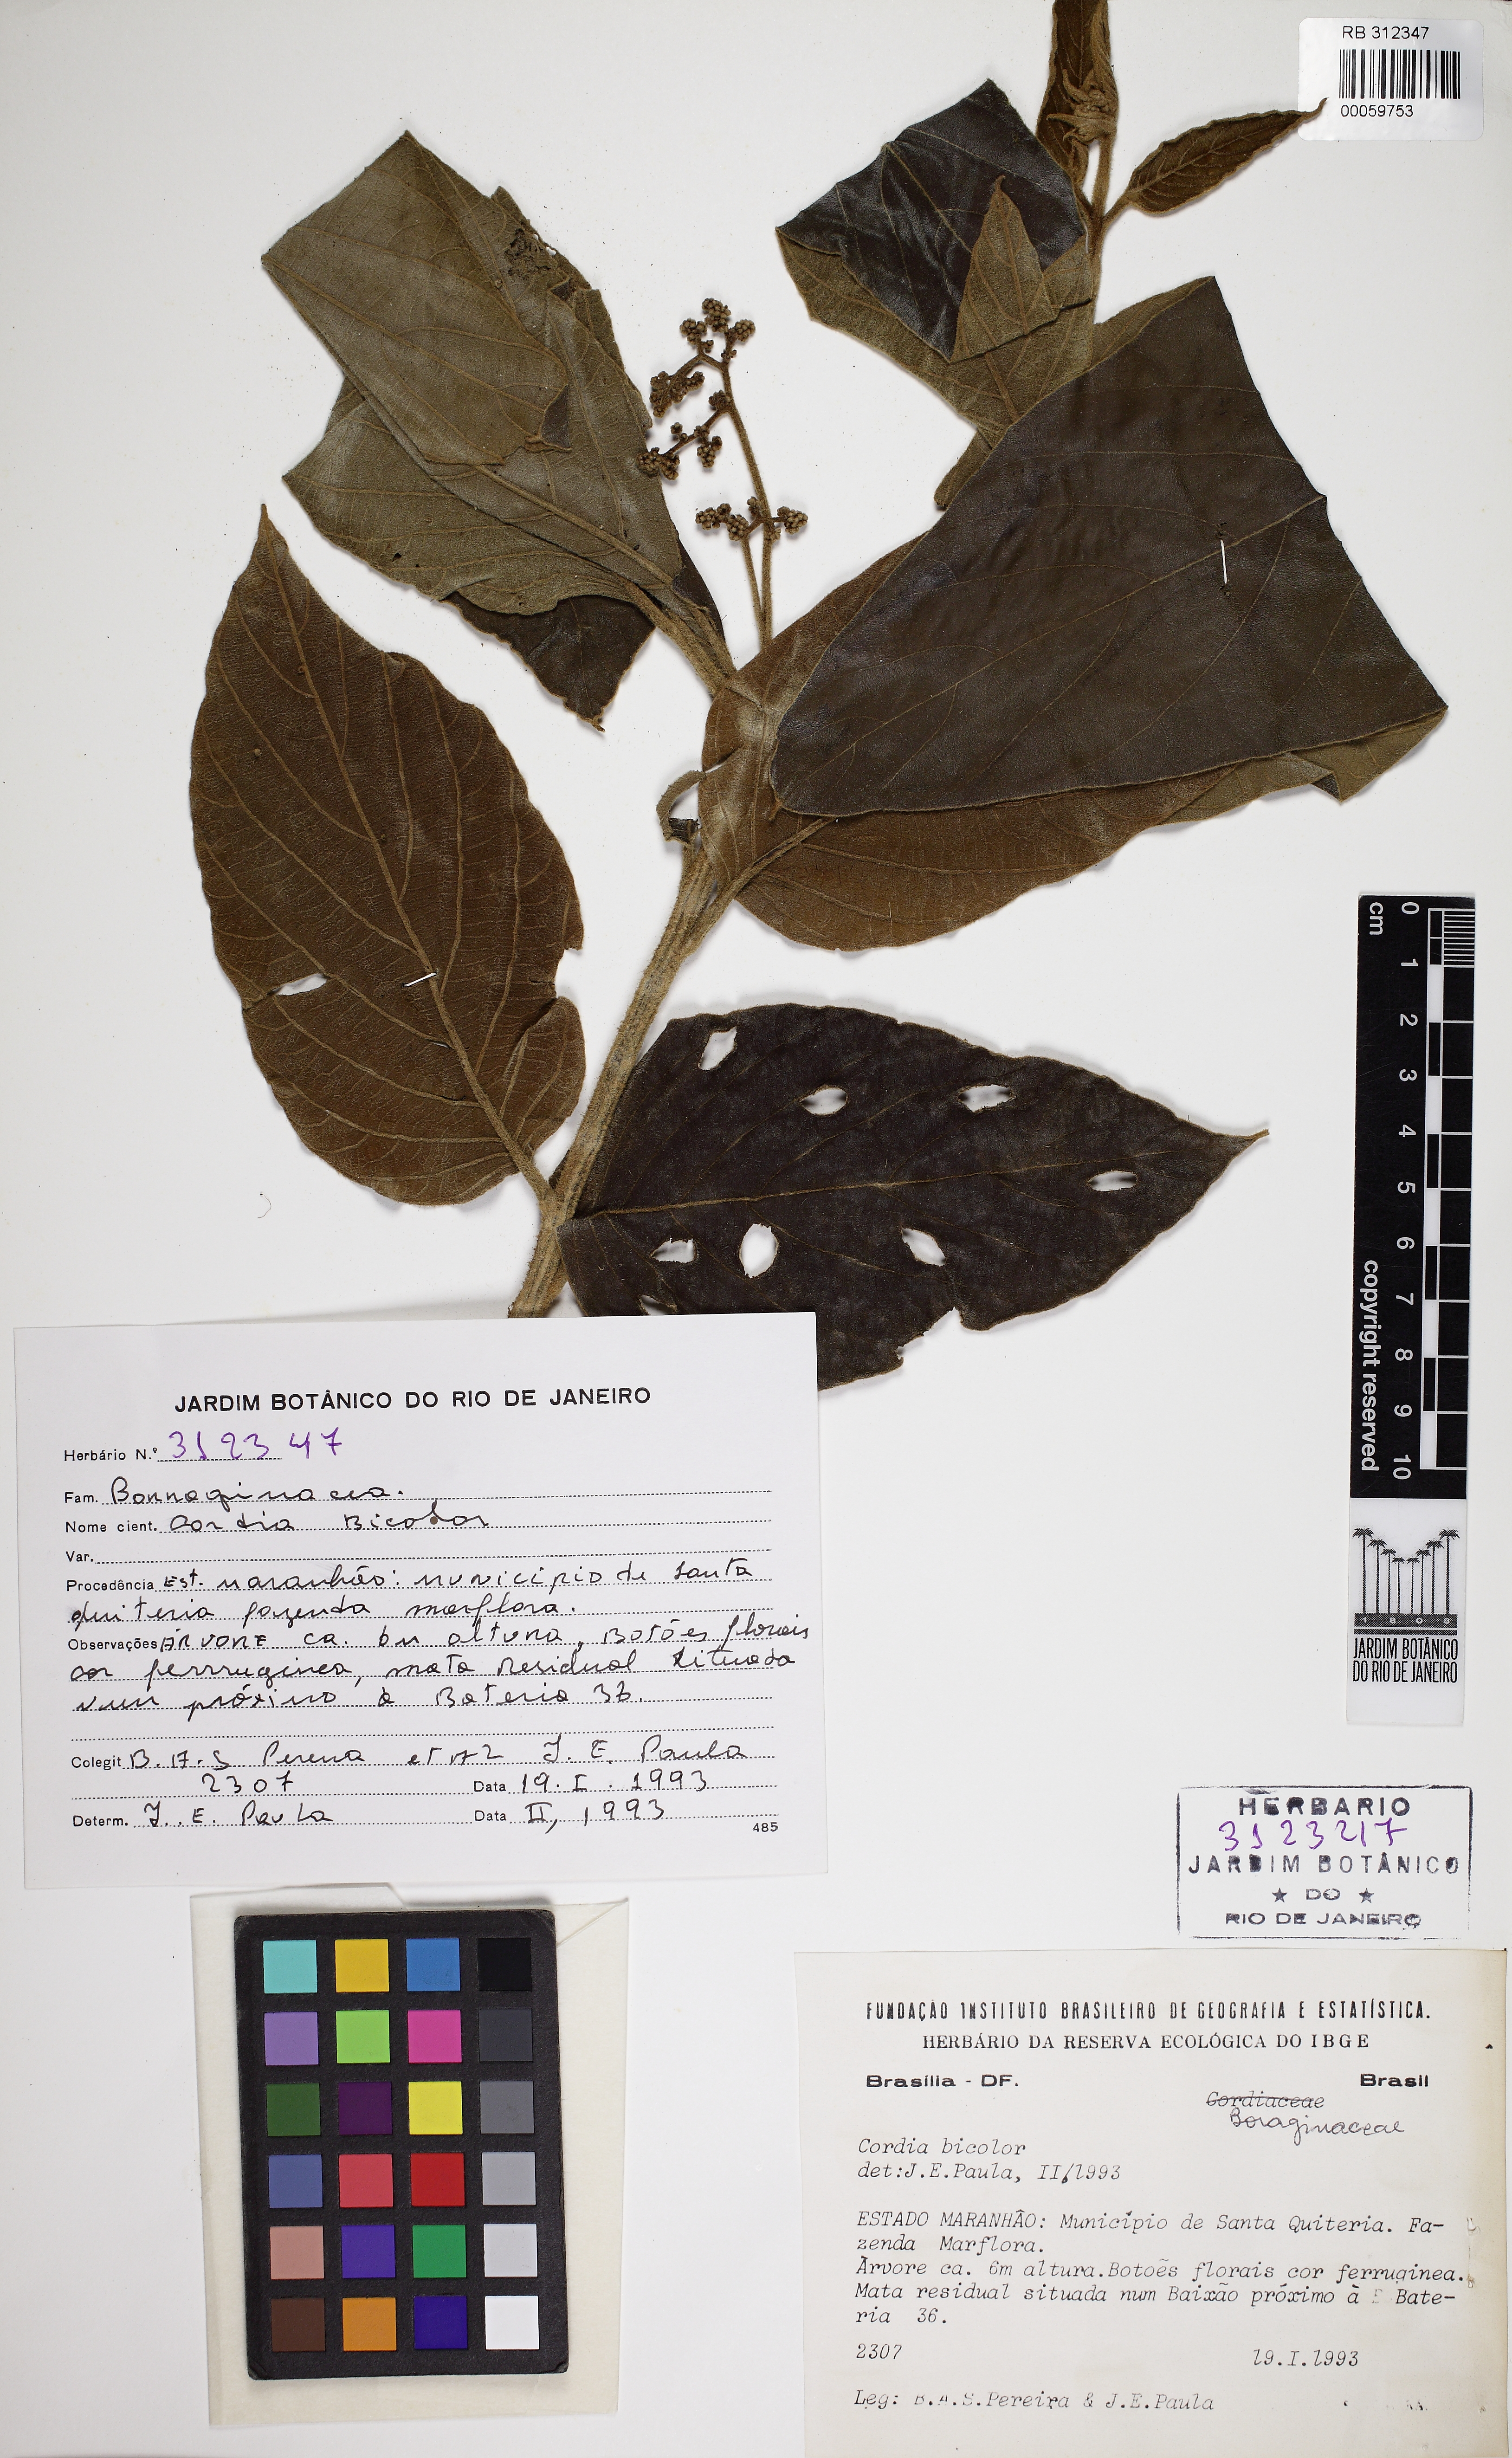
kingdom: Plantae
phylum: Tracheophyta
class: Magnoliopsida
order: Boraginales
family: Cordiaceae
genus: Cordia
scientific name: Cordia alliodora
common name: Spanish elm
